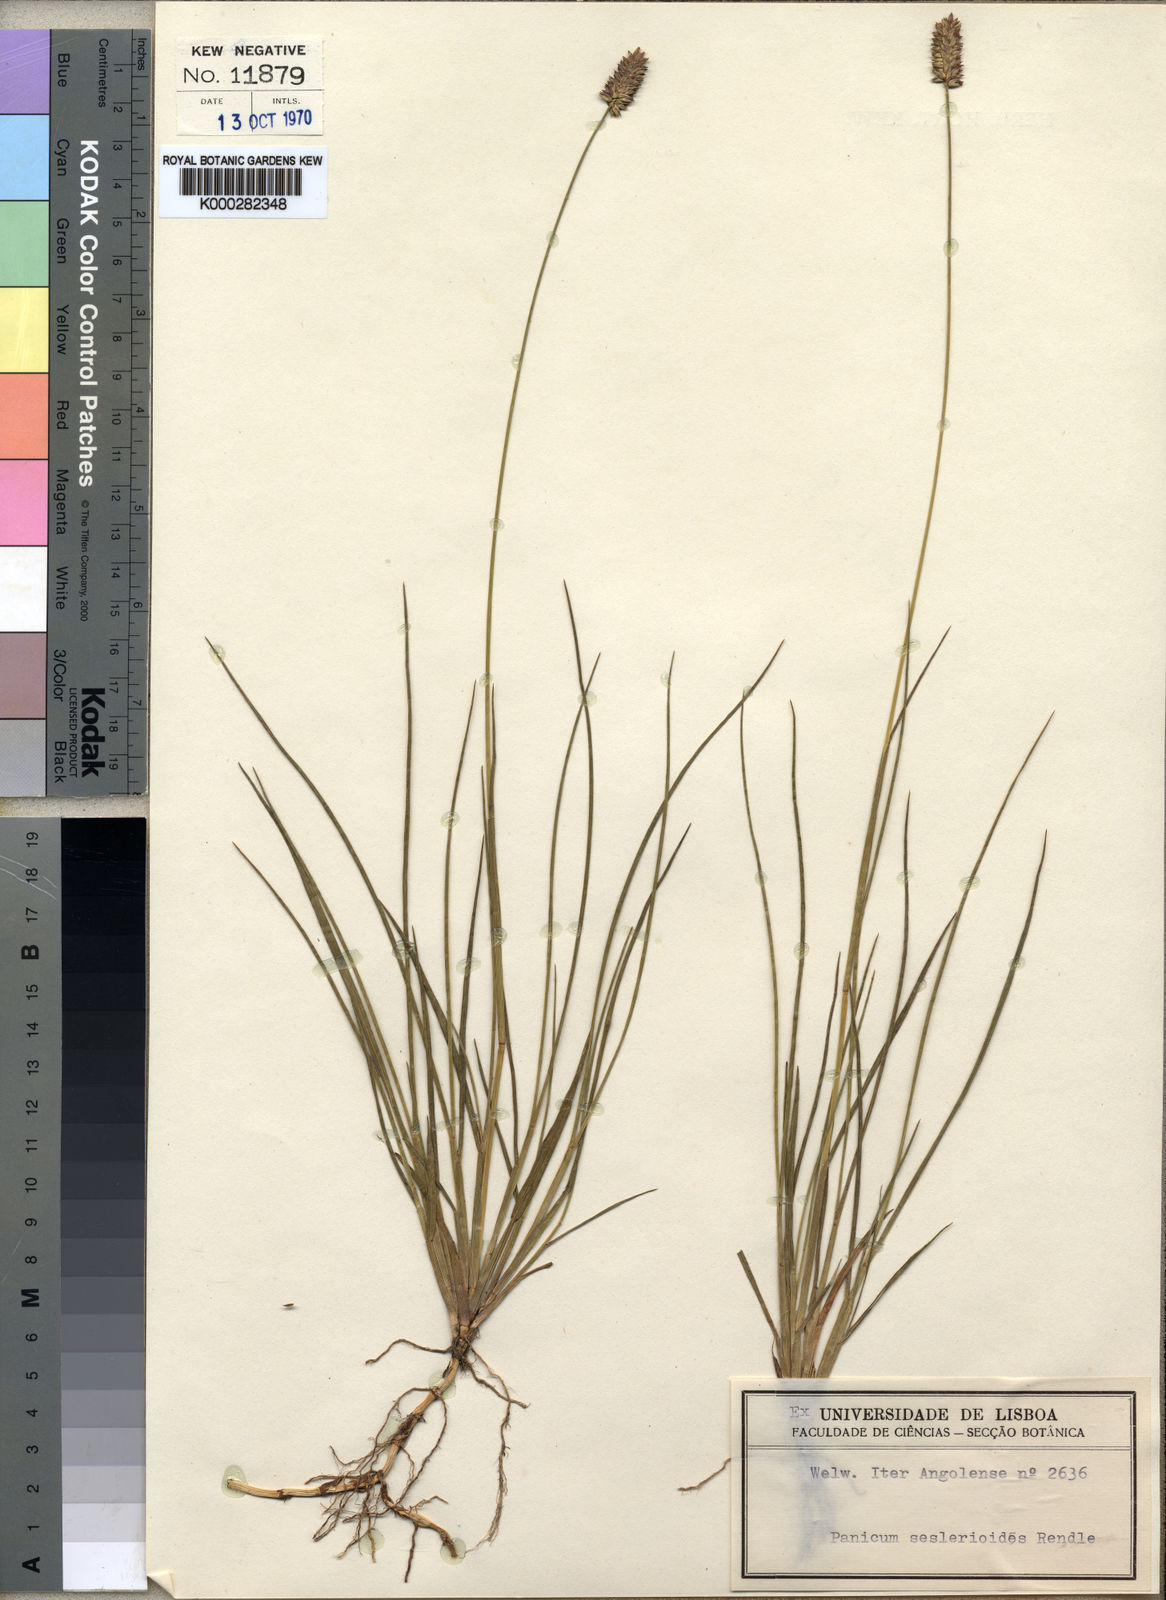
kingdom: Plantae
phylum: Tracheophyta
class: Liliopsida
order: Poales
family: Poaceae
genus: Sacciolepis
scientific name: Sacciolepis seslerioides
